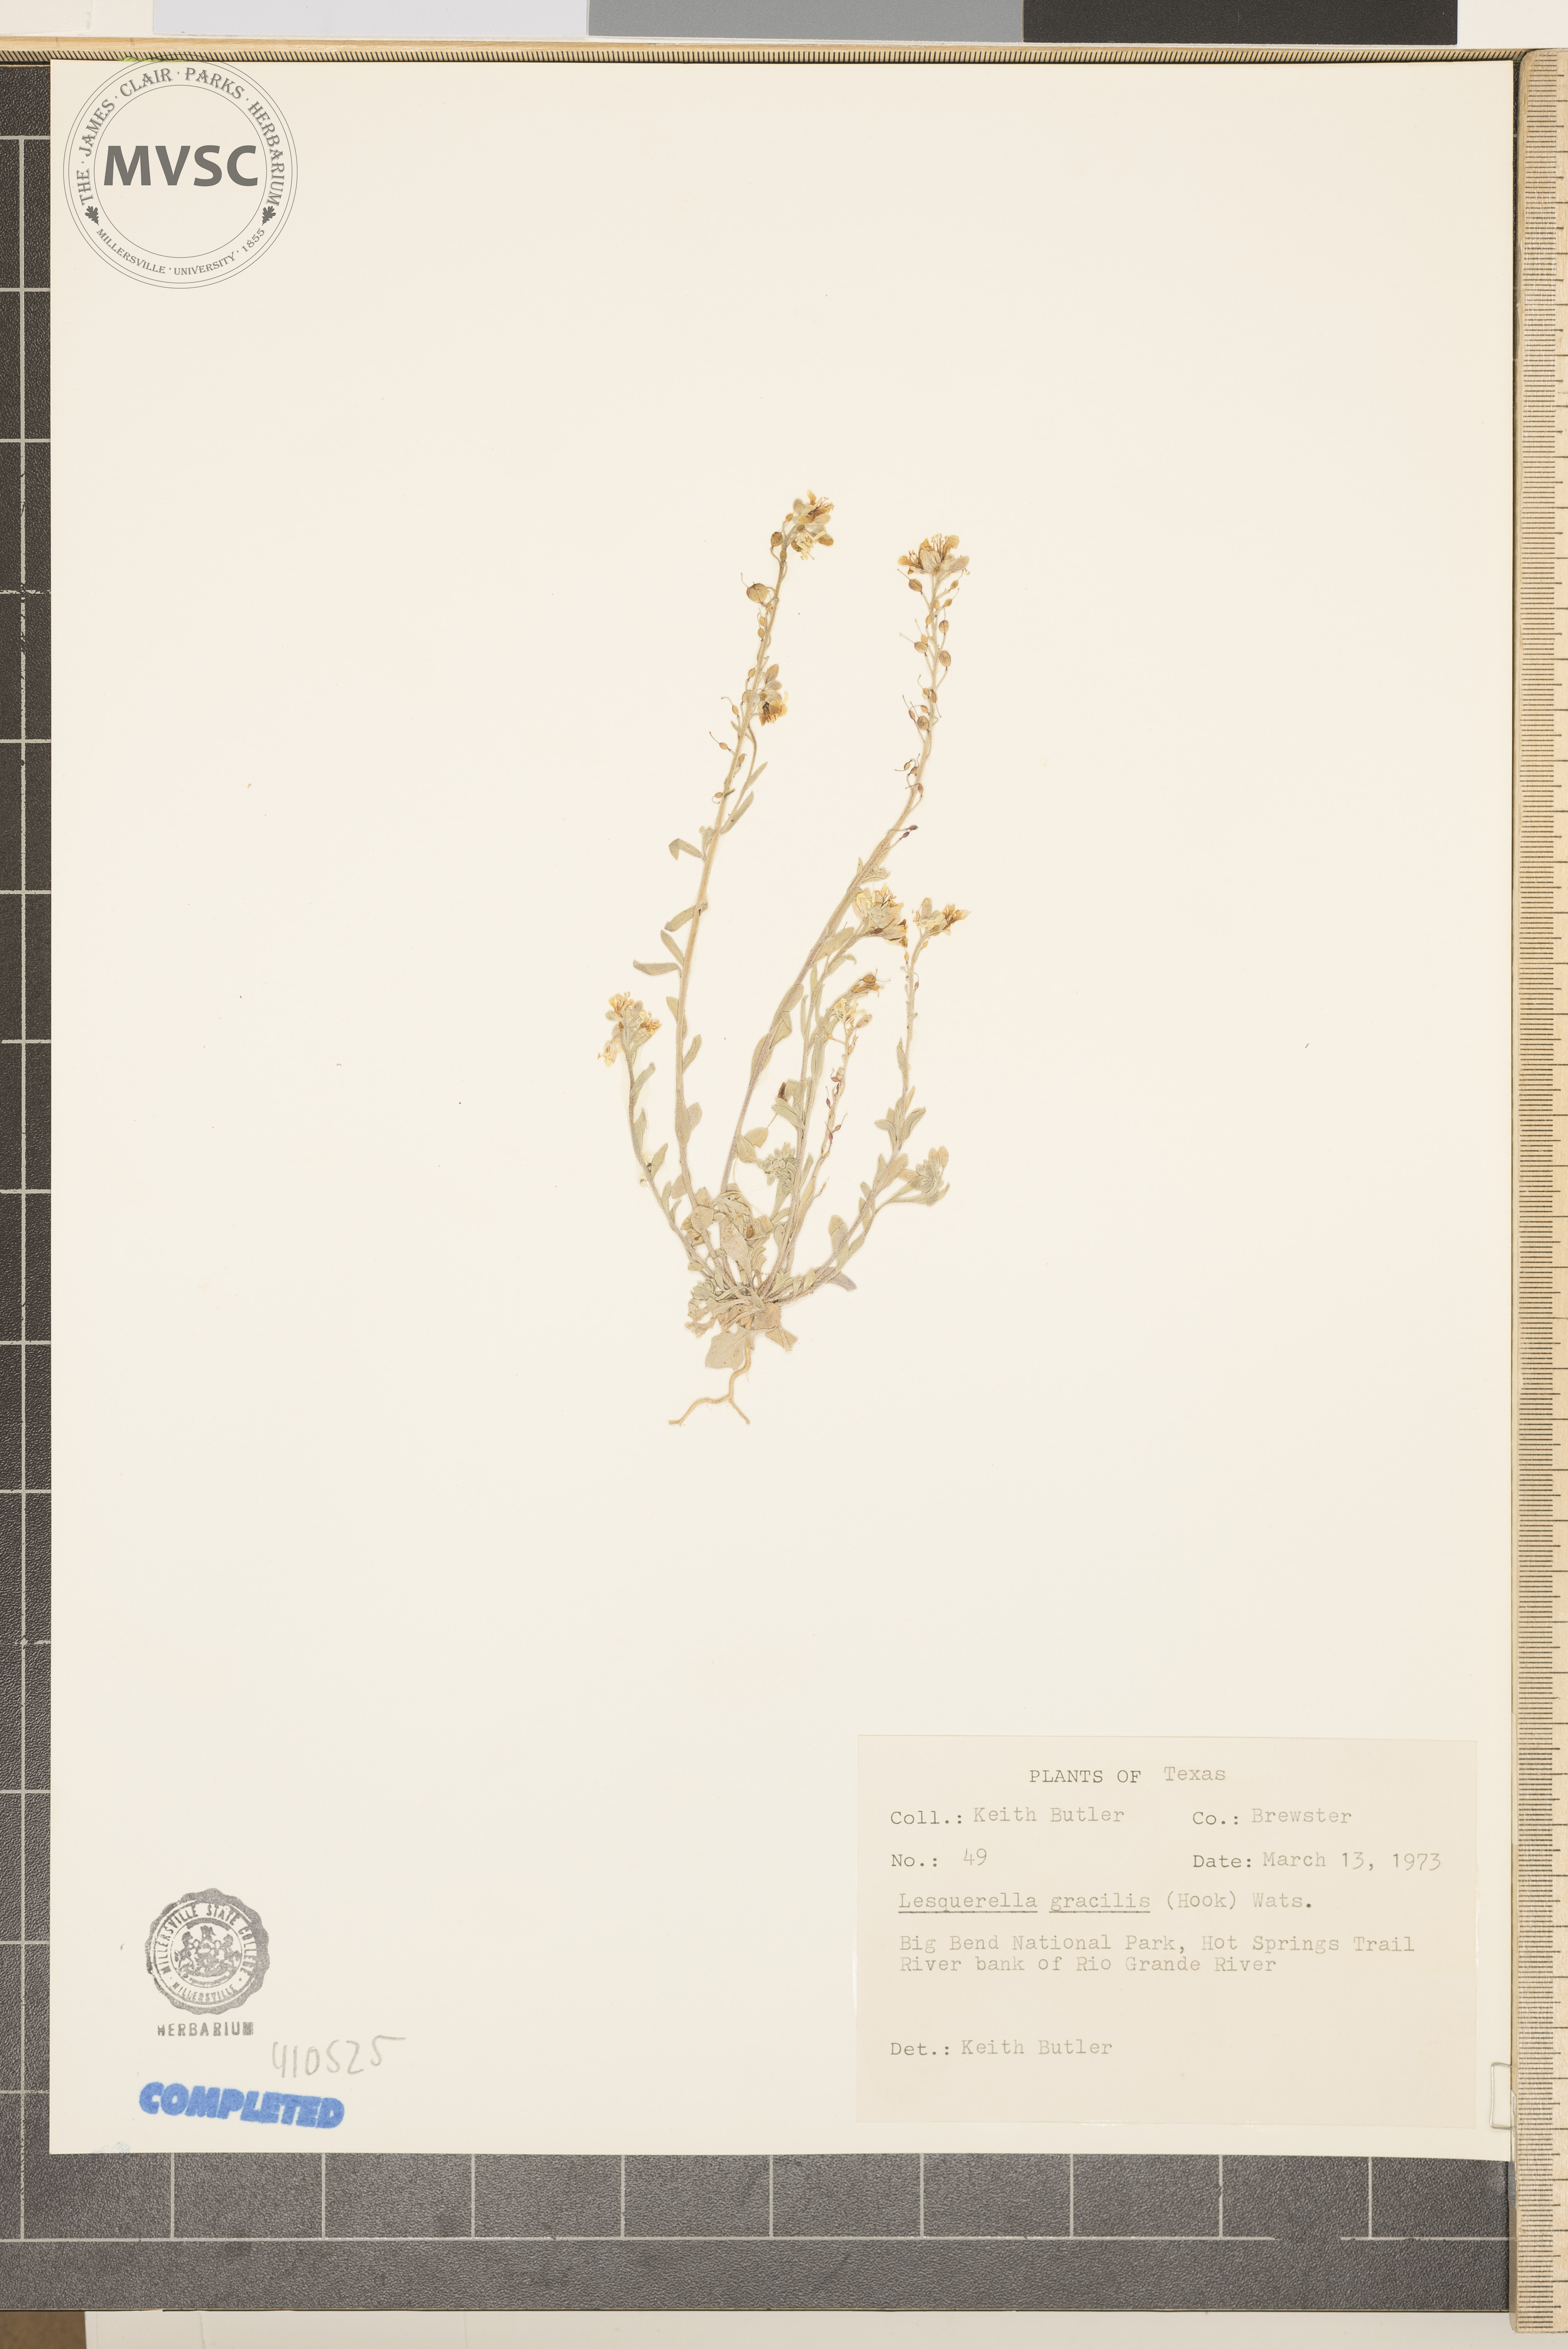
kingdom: Plantae
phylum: Tracheophyta
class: Magnoliopsida
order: Brassicales
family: Brassicaceae
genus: Physaria
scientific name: Physaria gracilis
